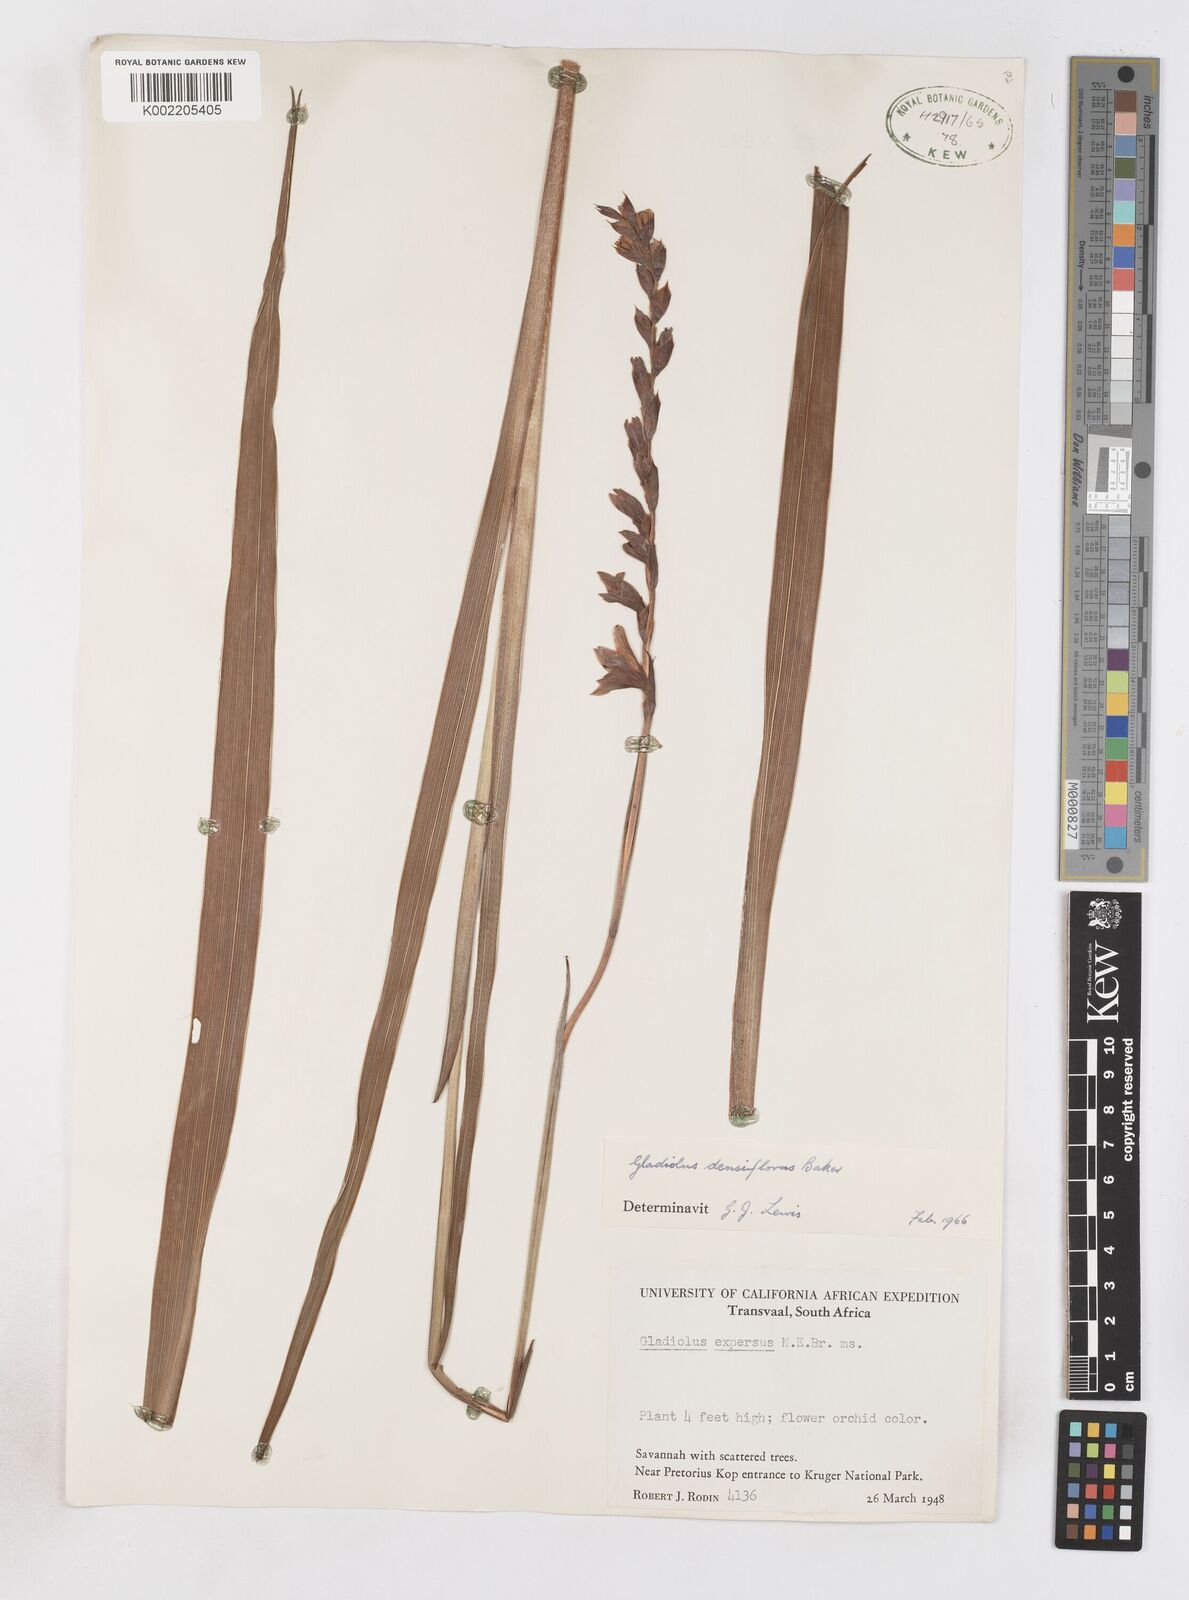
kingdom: Plantae
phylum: Tracheophyta
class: Liliopsida
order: Asparagales
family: Iridaceae
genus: Gladiolus
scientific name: Gladiolus densiflorus
